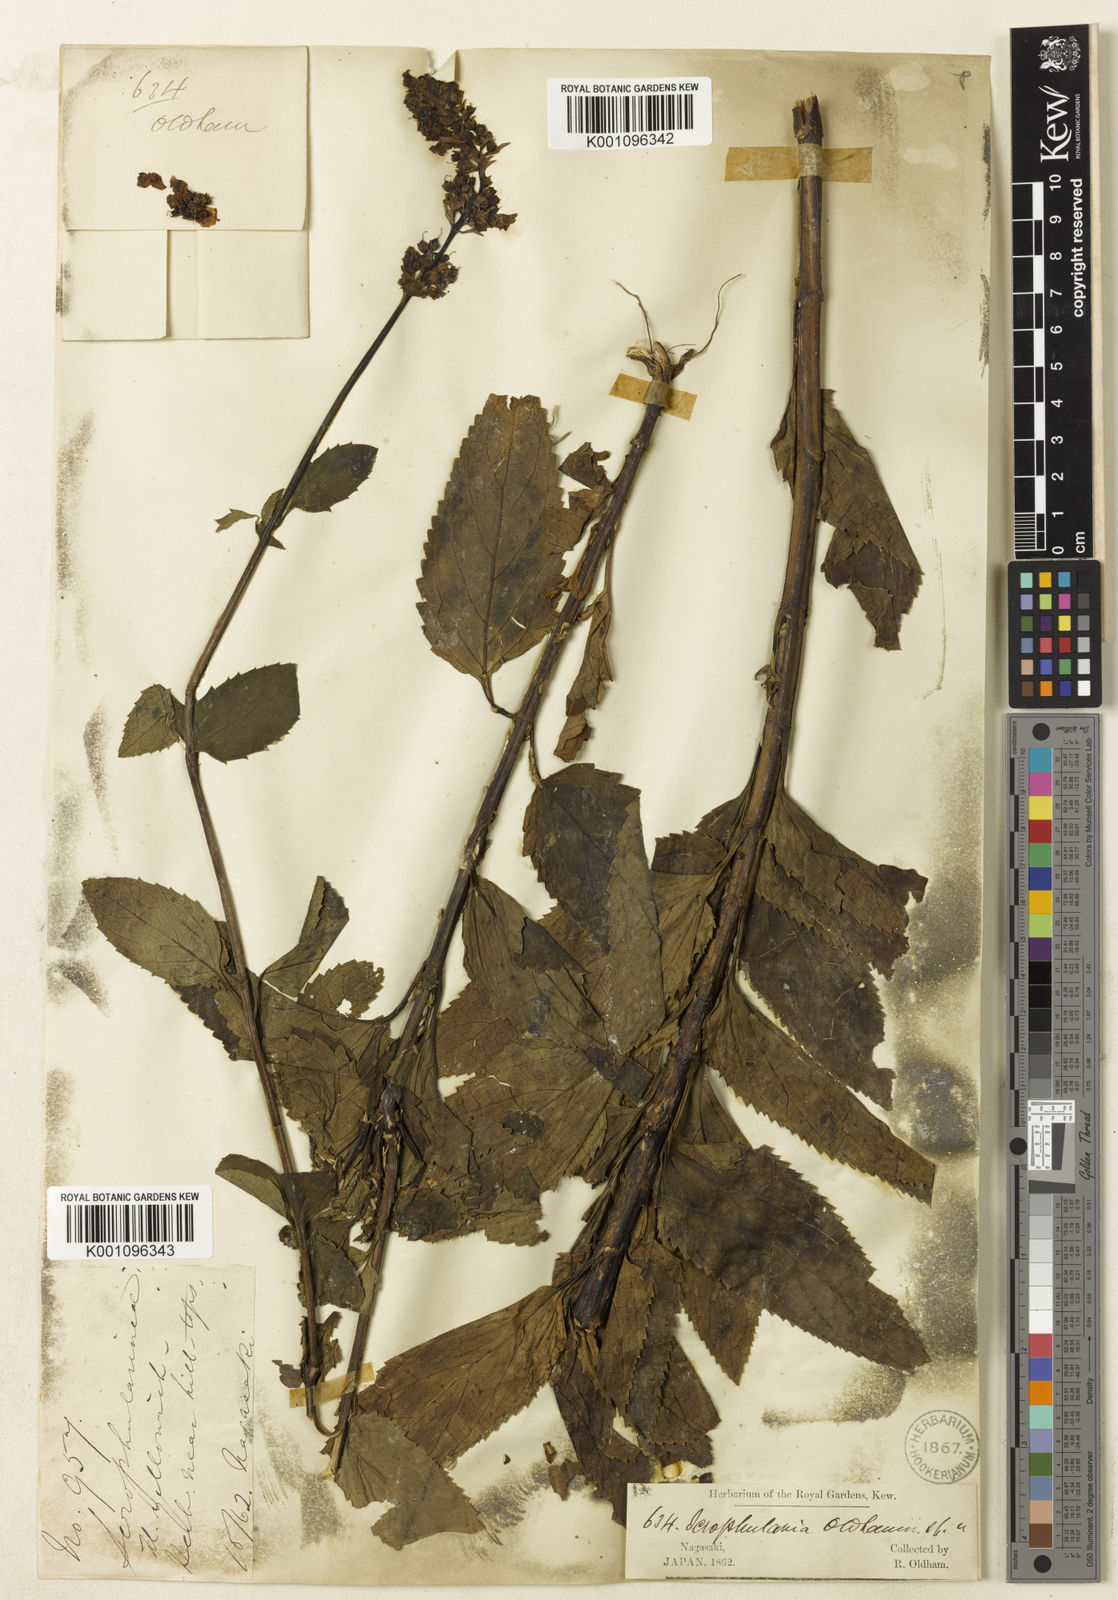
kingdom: Plantae
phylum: Tracheophyta
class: Magnoliopsida
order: Lamiales
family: Scrophulariaceae
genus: Scrophularia
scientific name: Scrophularia buergeriana
